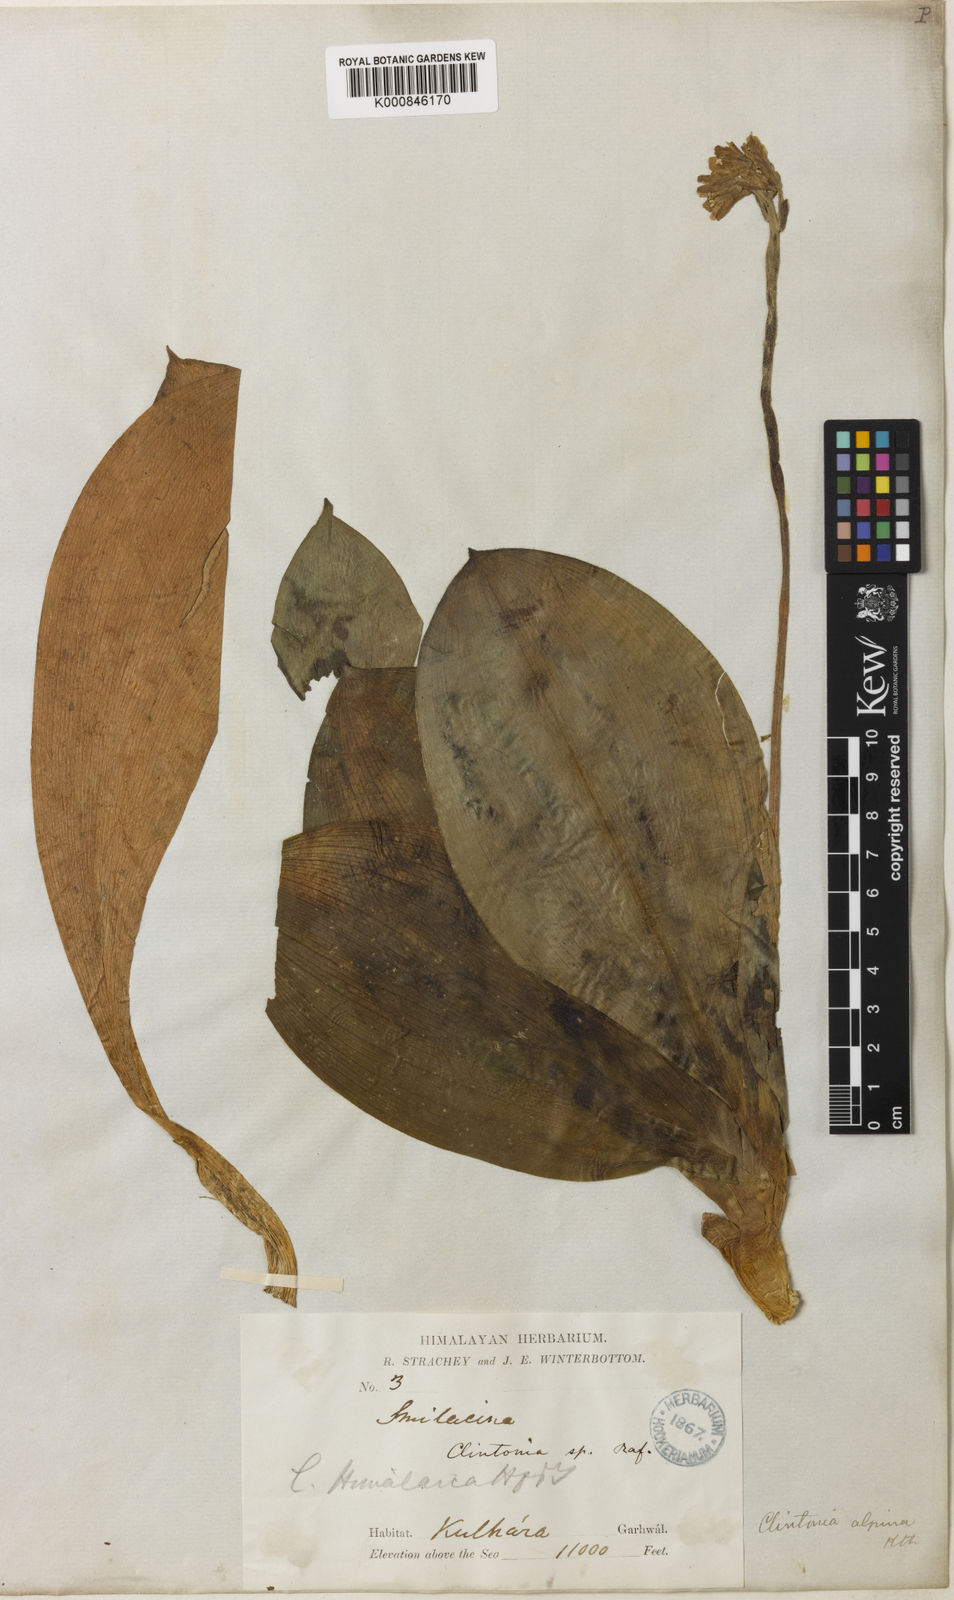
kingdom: Plantae
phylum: Tracheophyta
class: Liliopsida
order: Liliales
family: Liliaceae
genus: Clintonia
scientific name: Clintonia udensis
